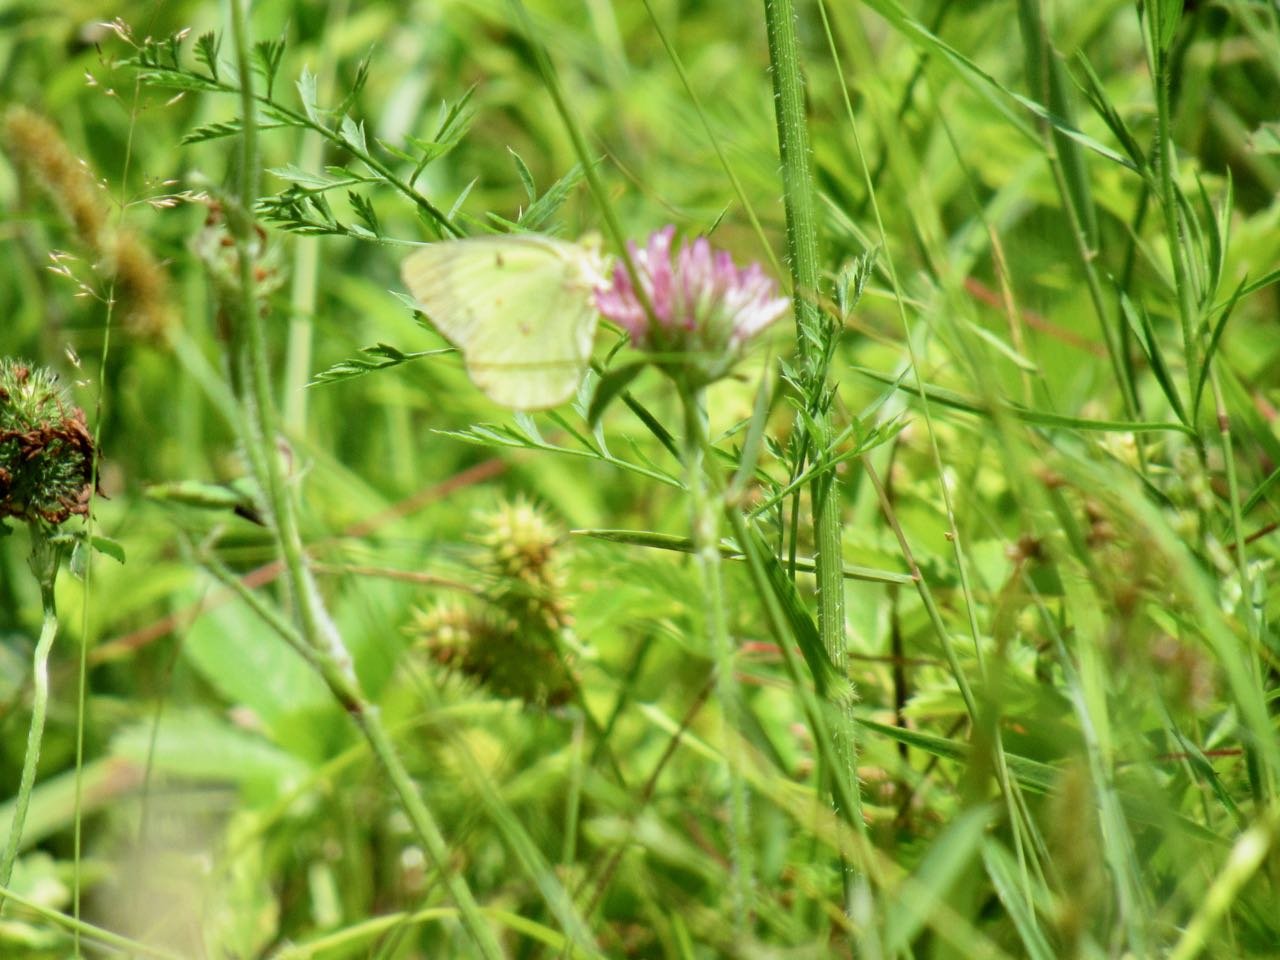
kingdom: Animalia
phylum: Arthropoda
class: Insecta
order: Lepidoptera
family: Pieridae
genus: Colias
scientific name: Colias philodice
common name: Clouded Sulphur
